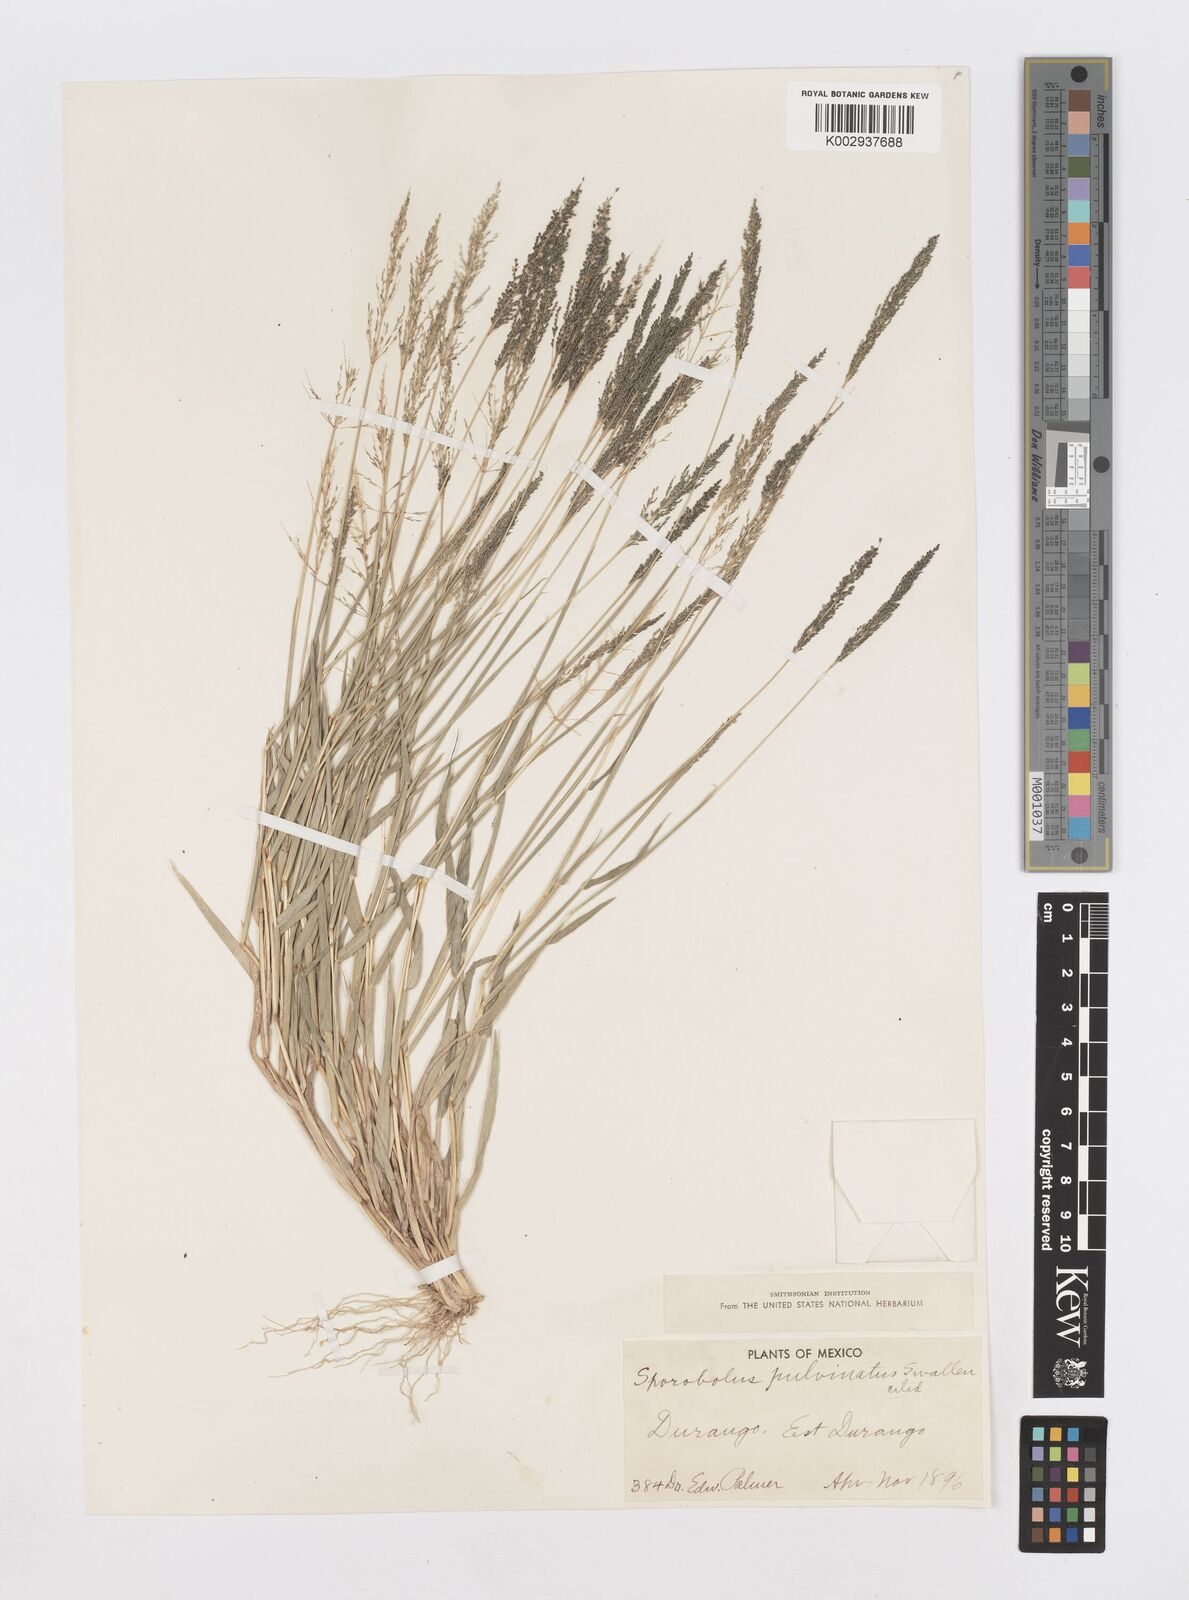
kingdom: Plantae
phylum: Tracheophyta
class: Liliopsida
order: Poales
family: Poaceae
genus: Sporobolus
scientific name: Sporobolus pyramidatus
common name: Whorled dropseed
